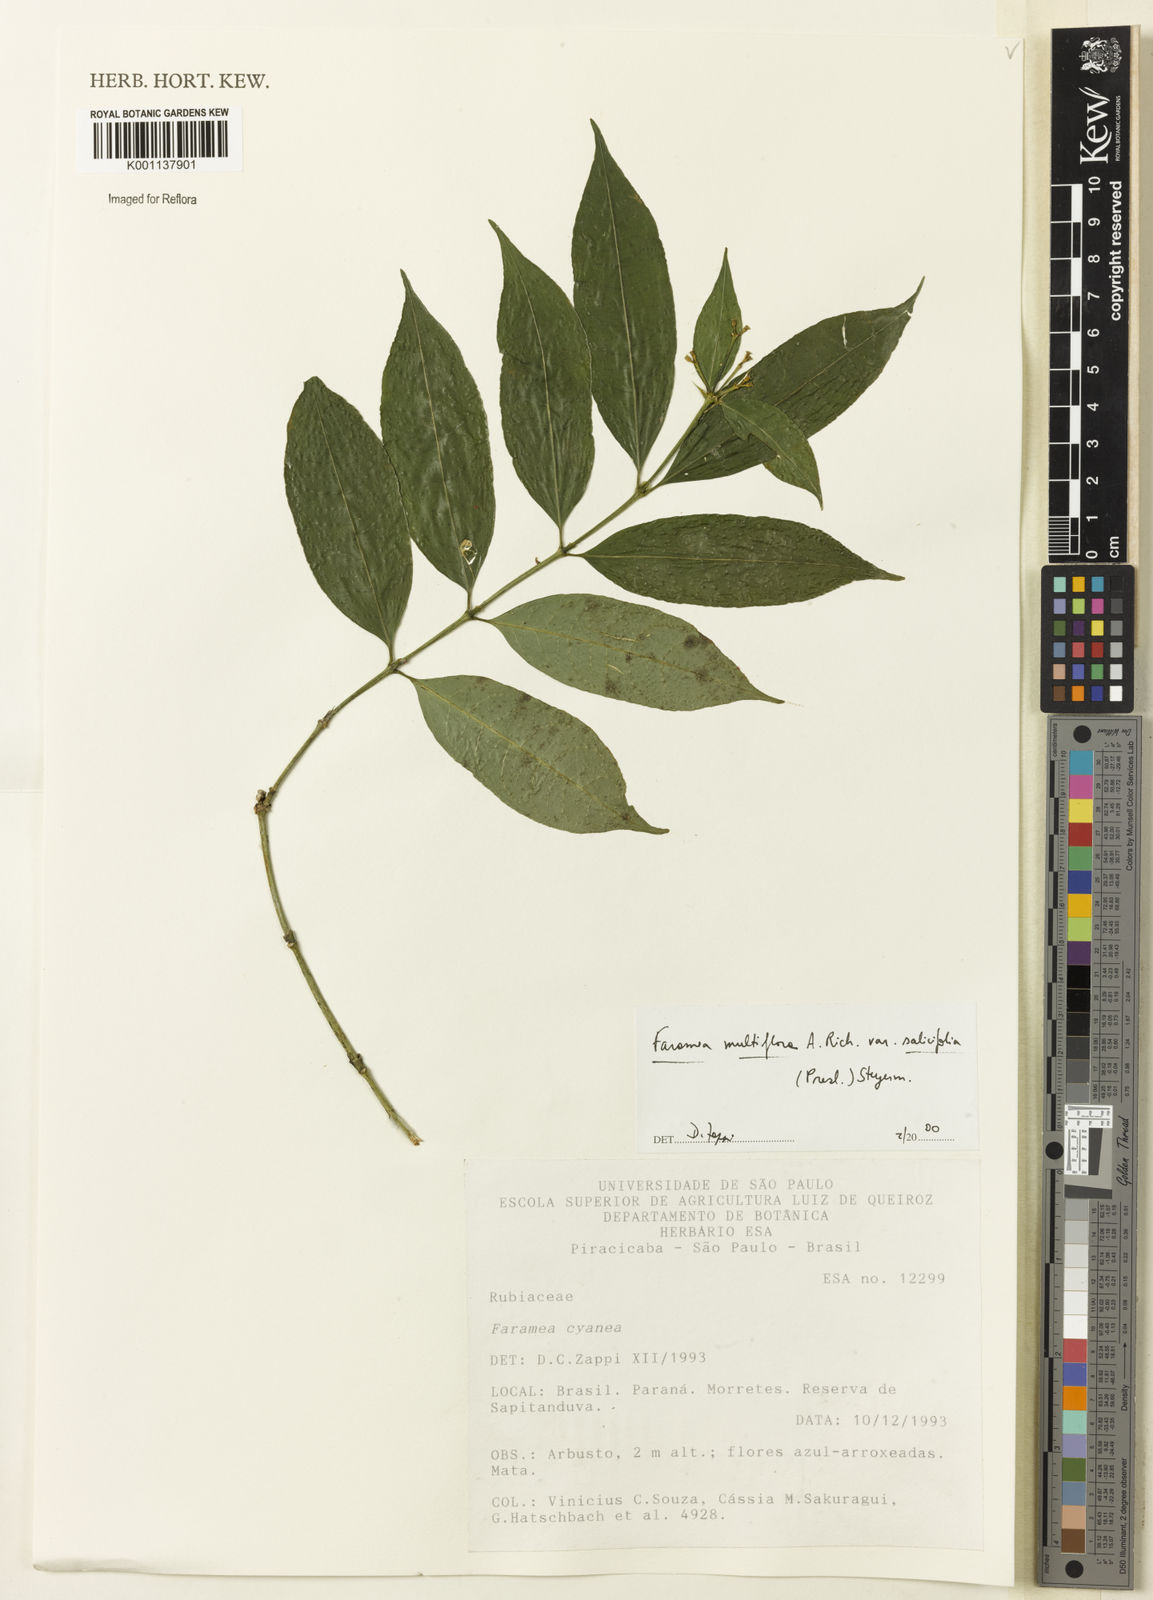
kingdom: Plantae
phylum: Tracheophyta
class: Magnoliopsida
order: Gentianales
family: Rubiaceae
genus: Faramea
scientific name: Faramea multiflora
